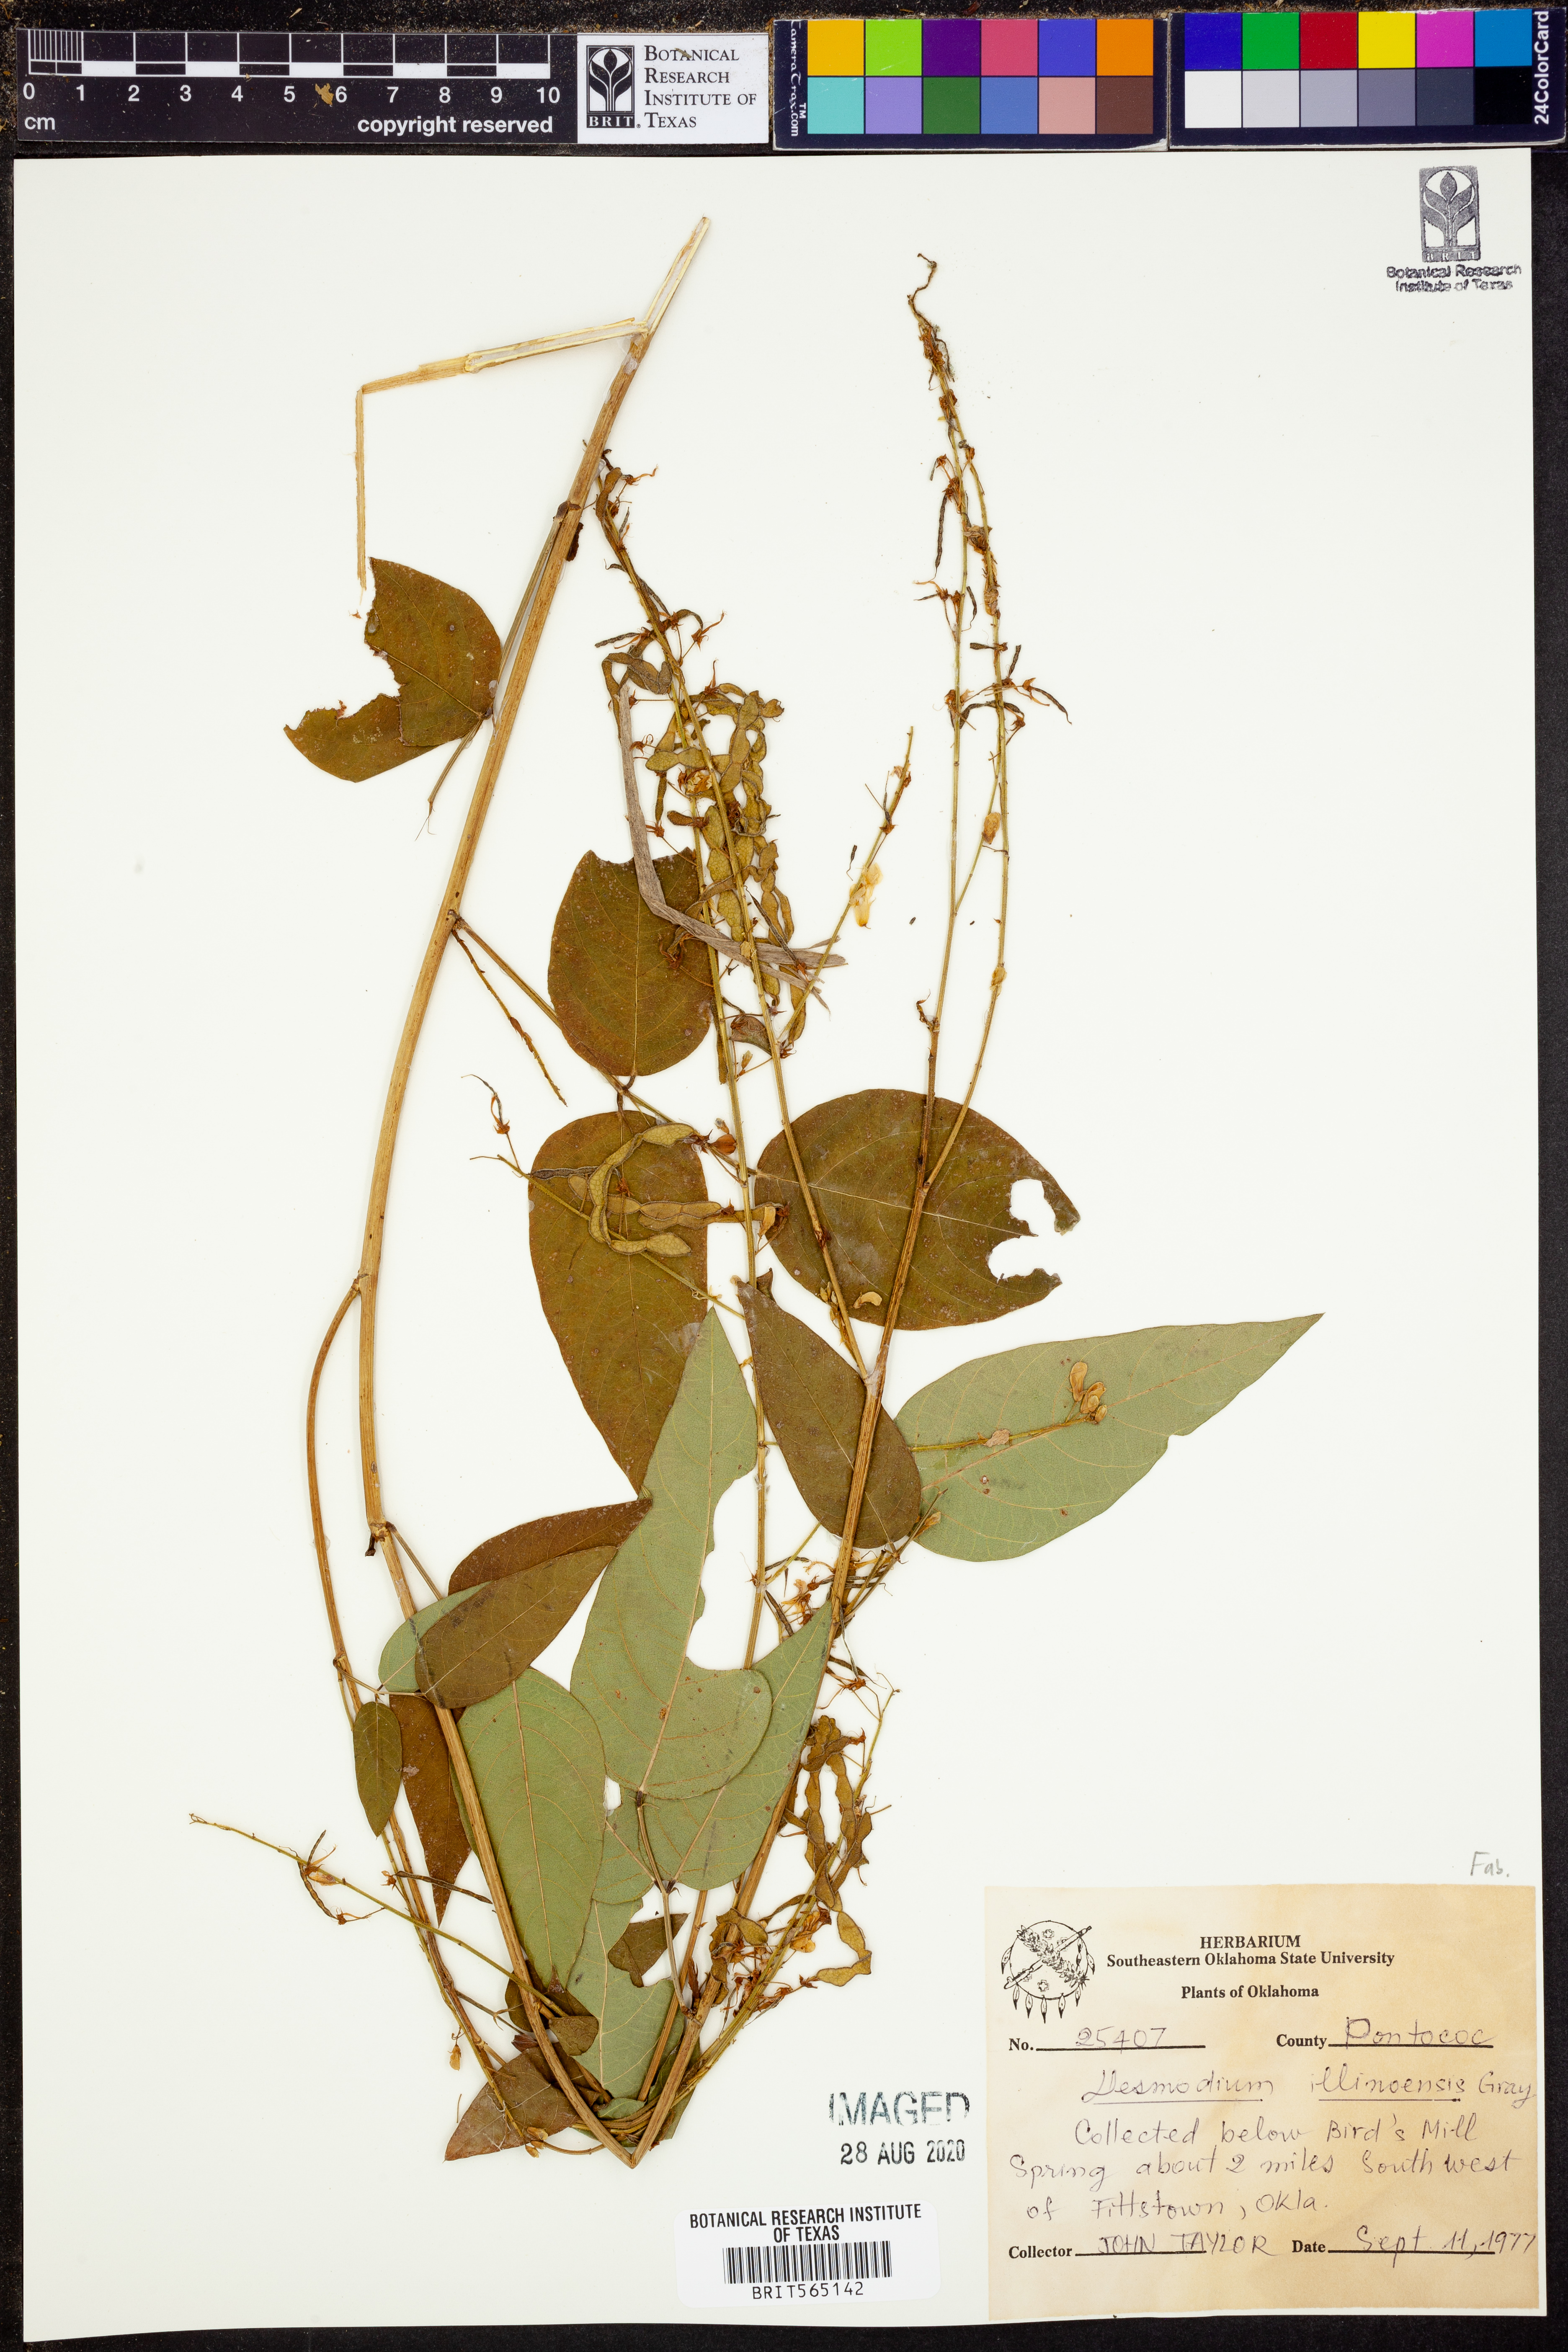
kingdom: Plantae
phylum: Tracheophyta
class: Magnoliopsida
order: Fabales
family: Fabaceae
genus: Desmodium
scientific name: Desmodium illinoense
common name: Illinois tick-clover
